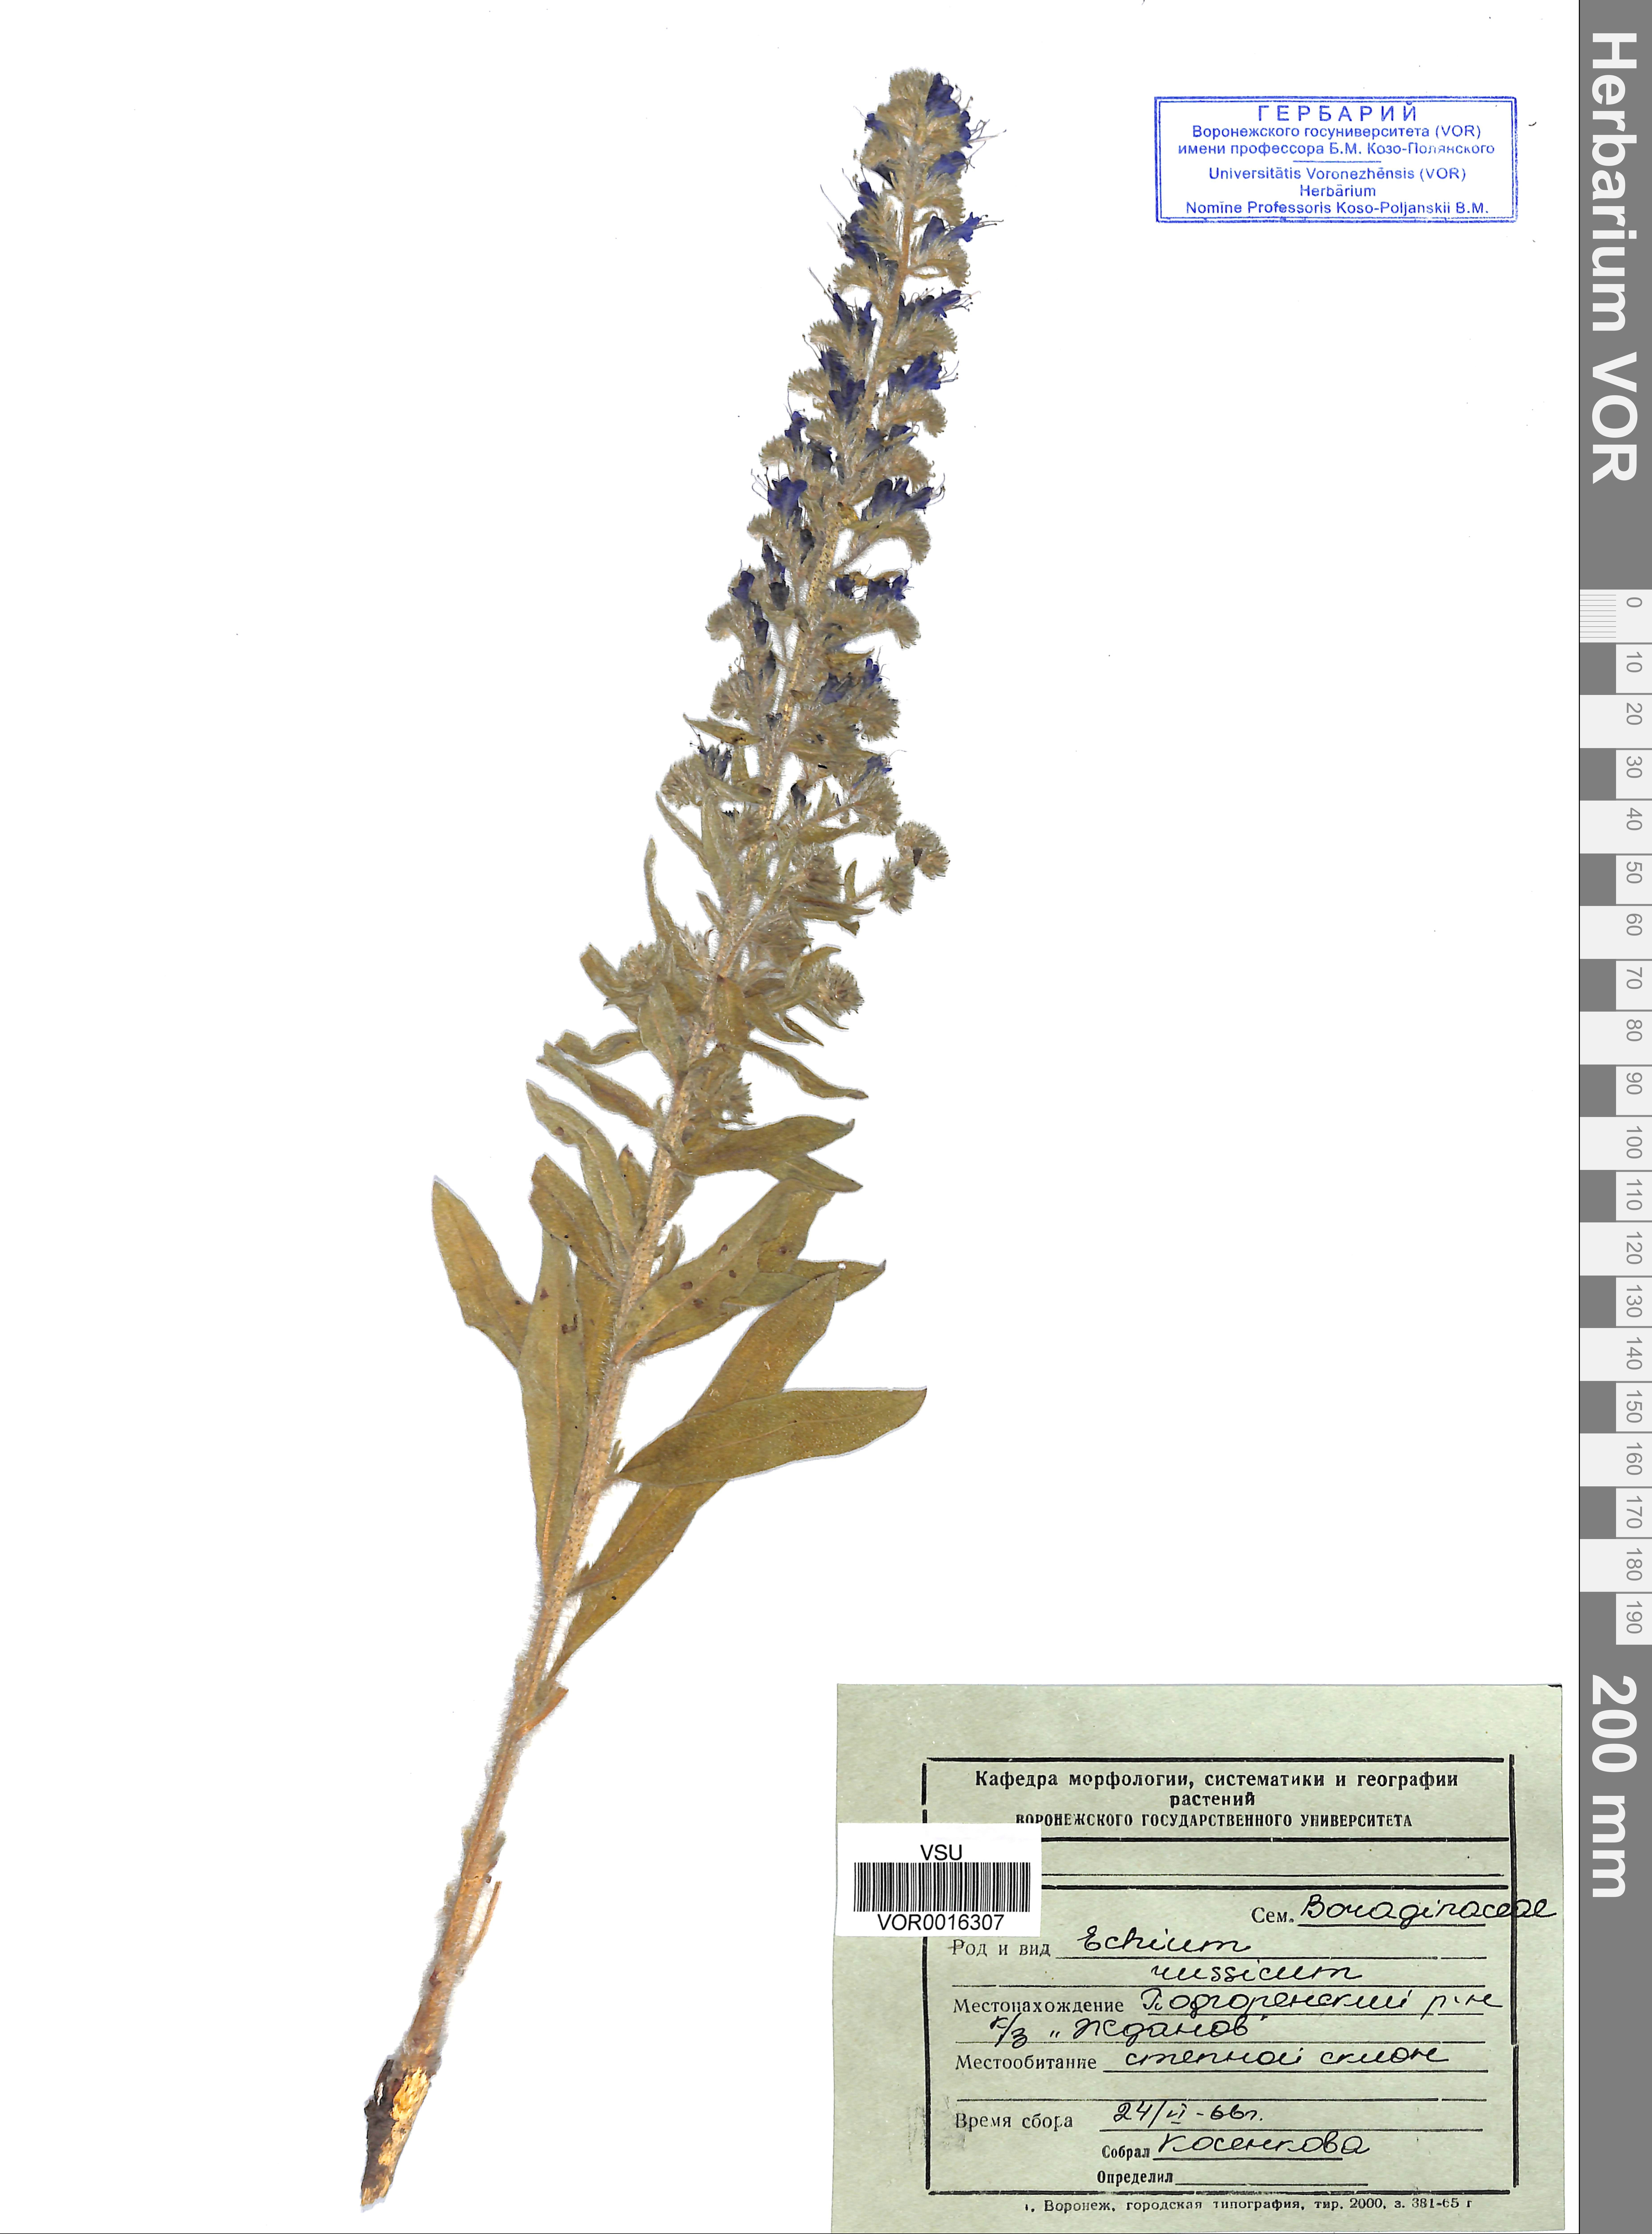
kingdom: Plantae
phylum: Tracheophyta
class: Magnoliopsida
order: Boraginales
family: Boraginaceae
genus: Pontechium
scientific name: Pontechium maculatum
